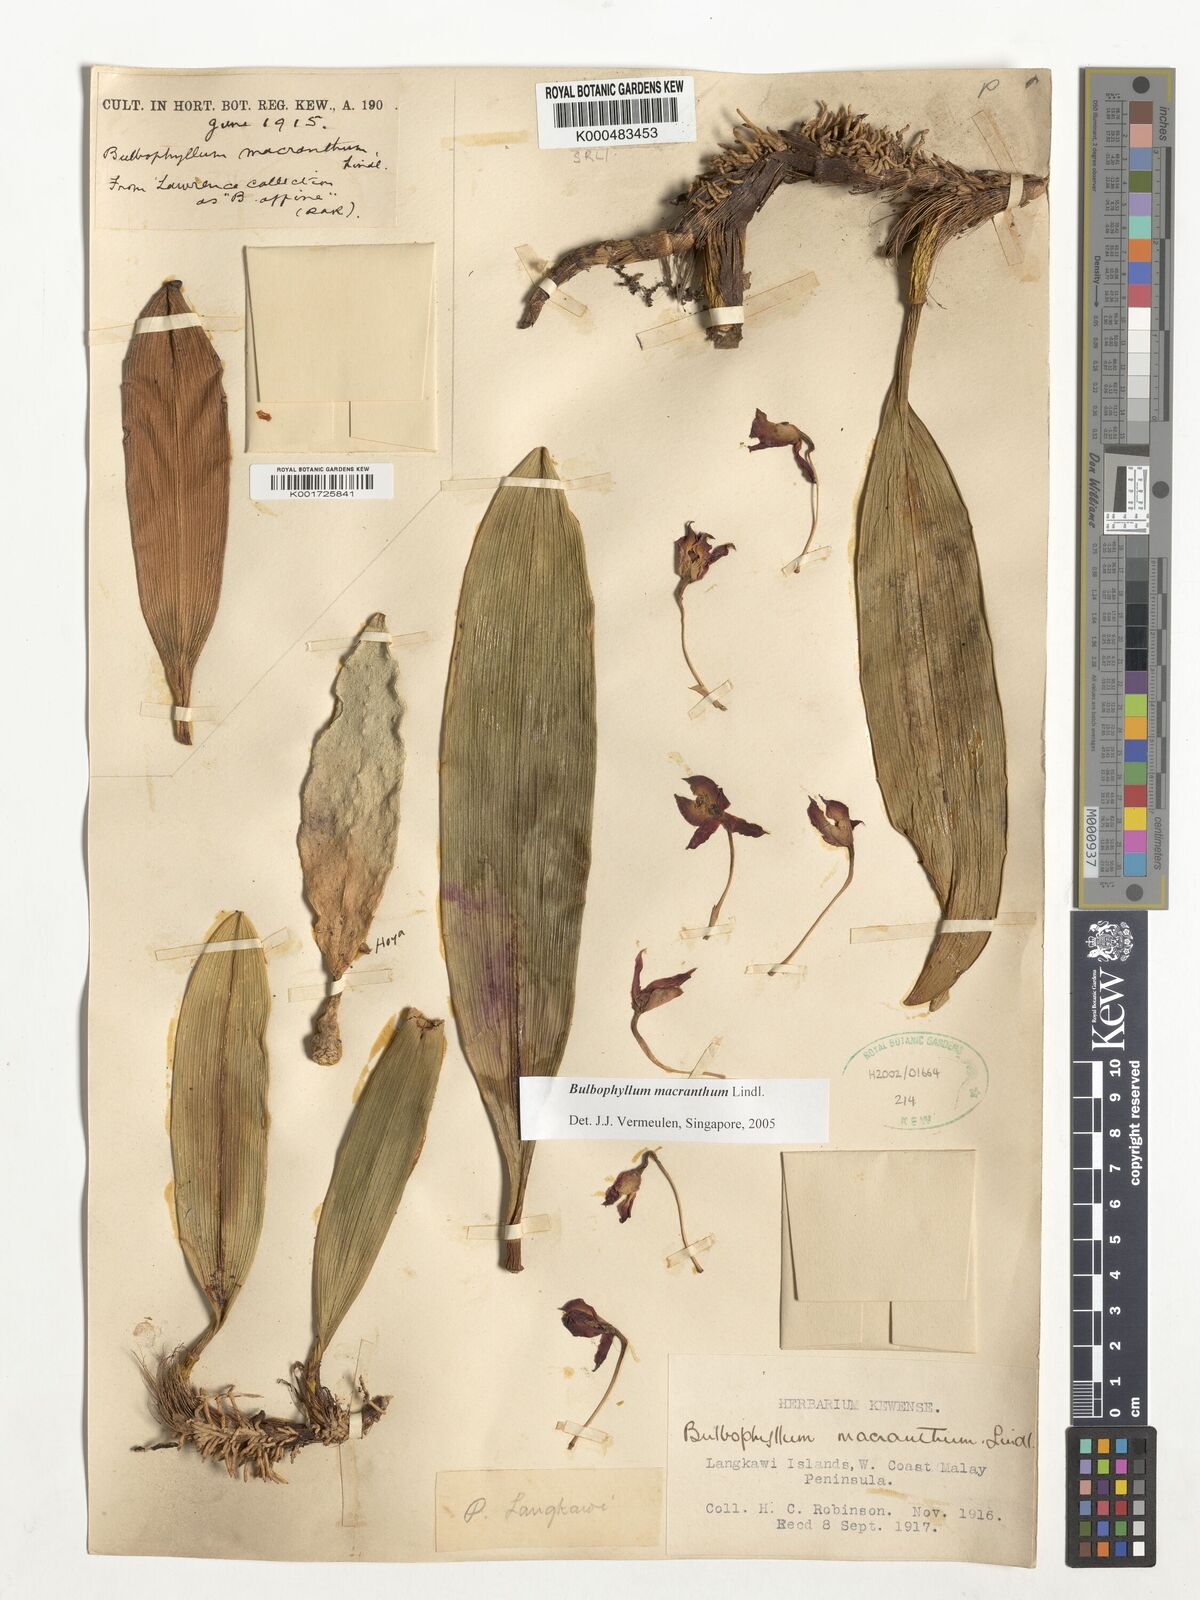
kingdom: Plantae
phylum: Tracheophyta
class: Liliopsida
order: Asparagales
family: Orchidaceae
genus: Bulbophyllum
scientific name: Bulbophyllum macranthum
